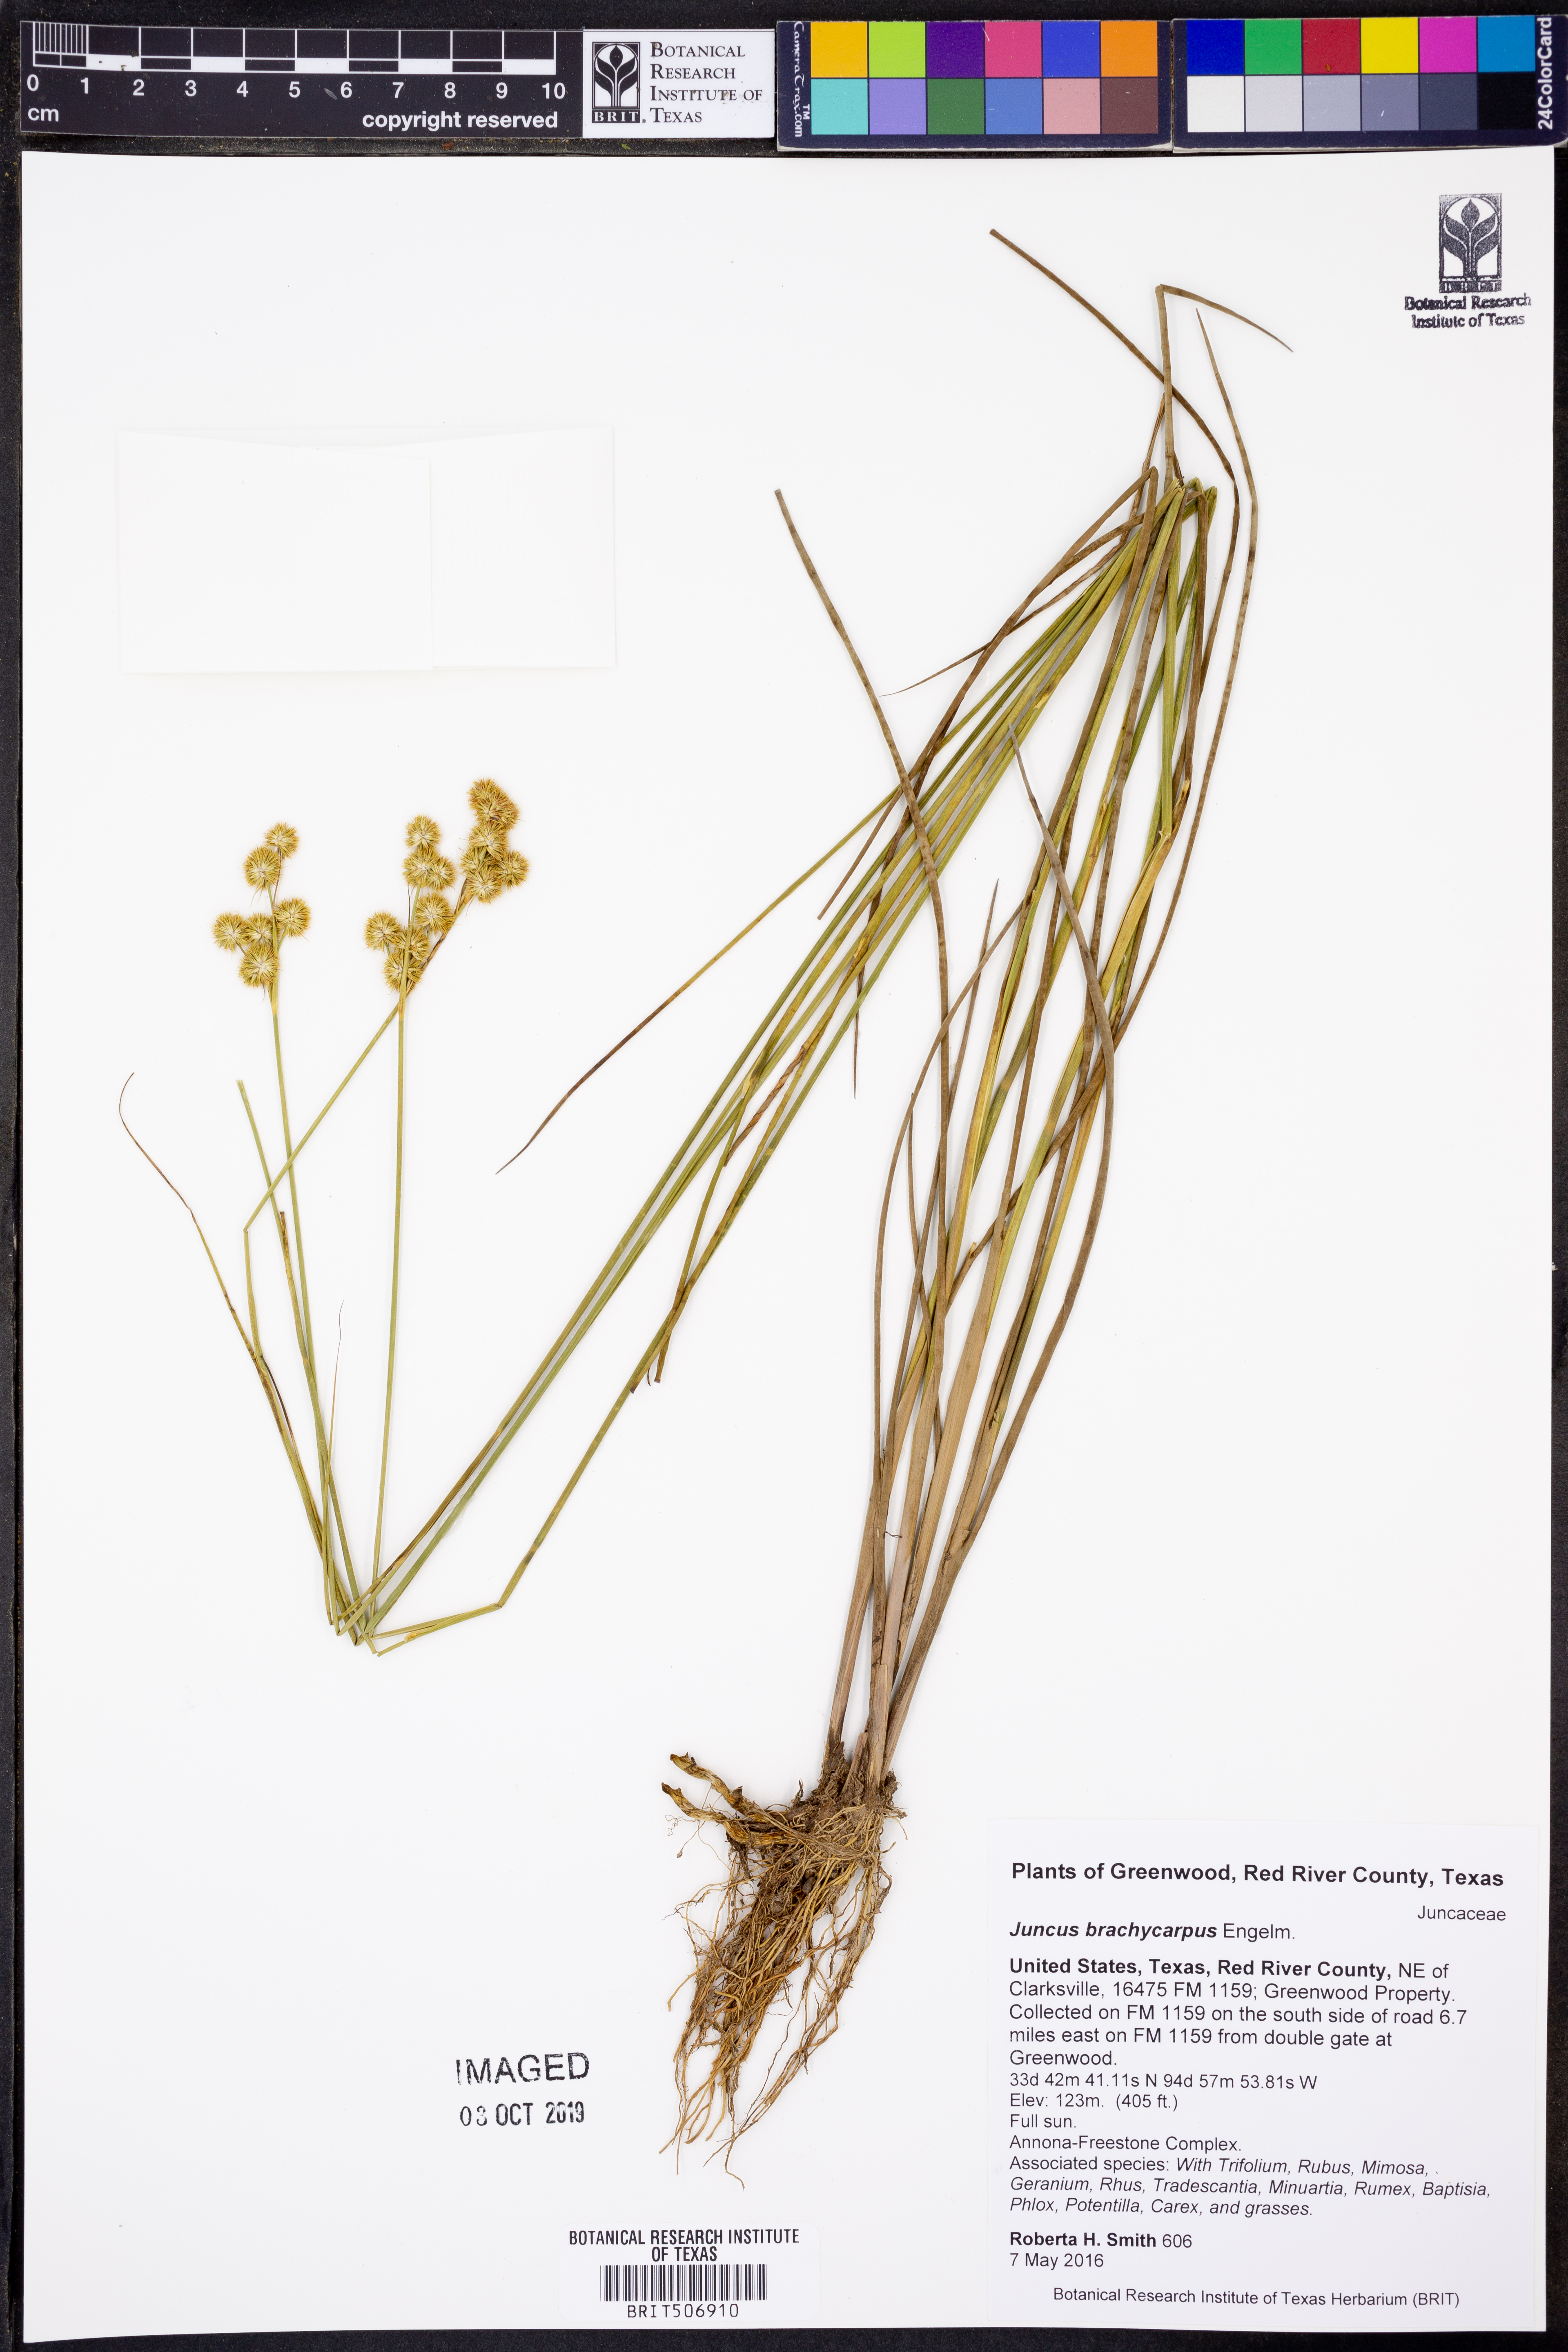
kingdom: Plantae
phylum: Tracheophyta
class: Liliopsida
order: Poales
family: Juncaceae
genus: Juncus
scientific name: Juncus brachycarpus
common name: Shore rush
